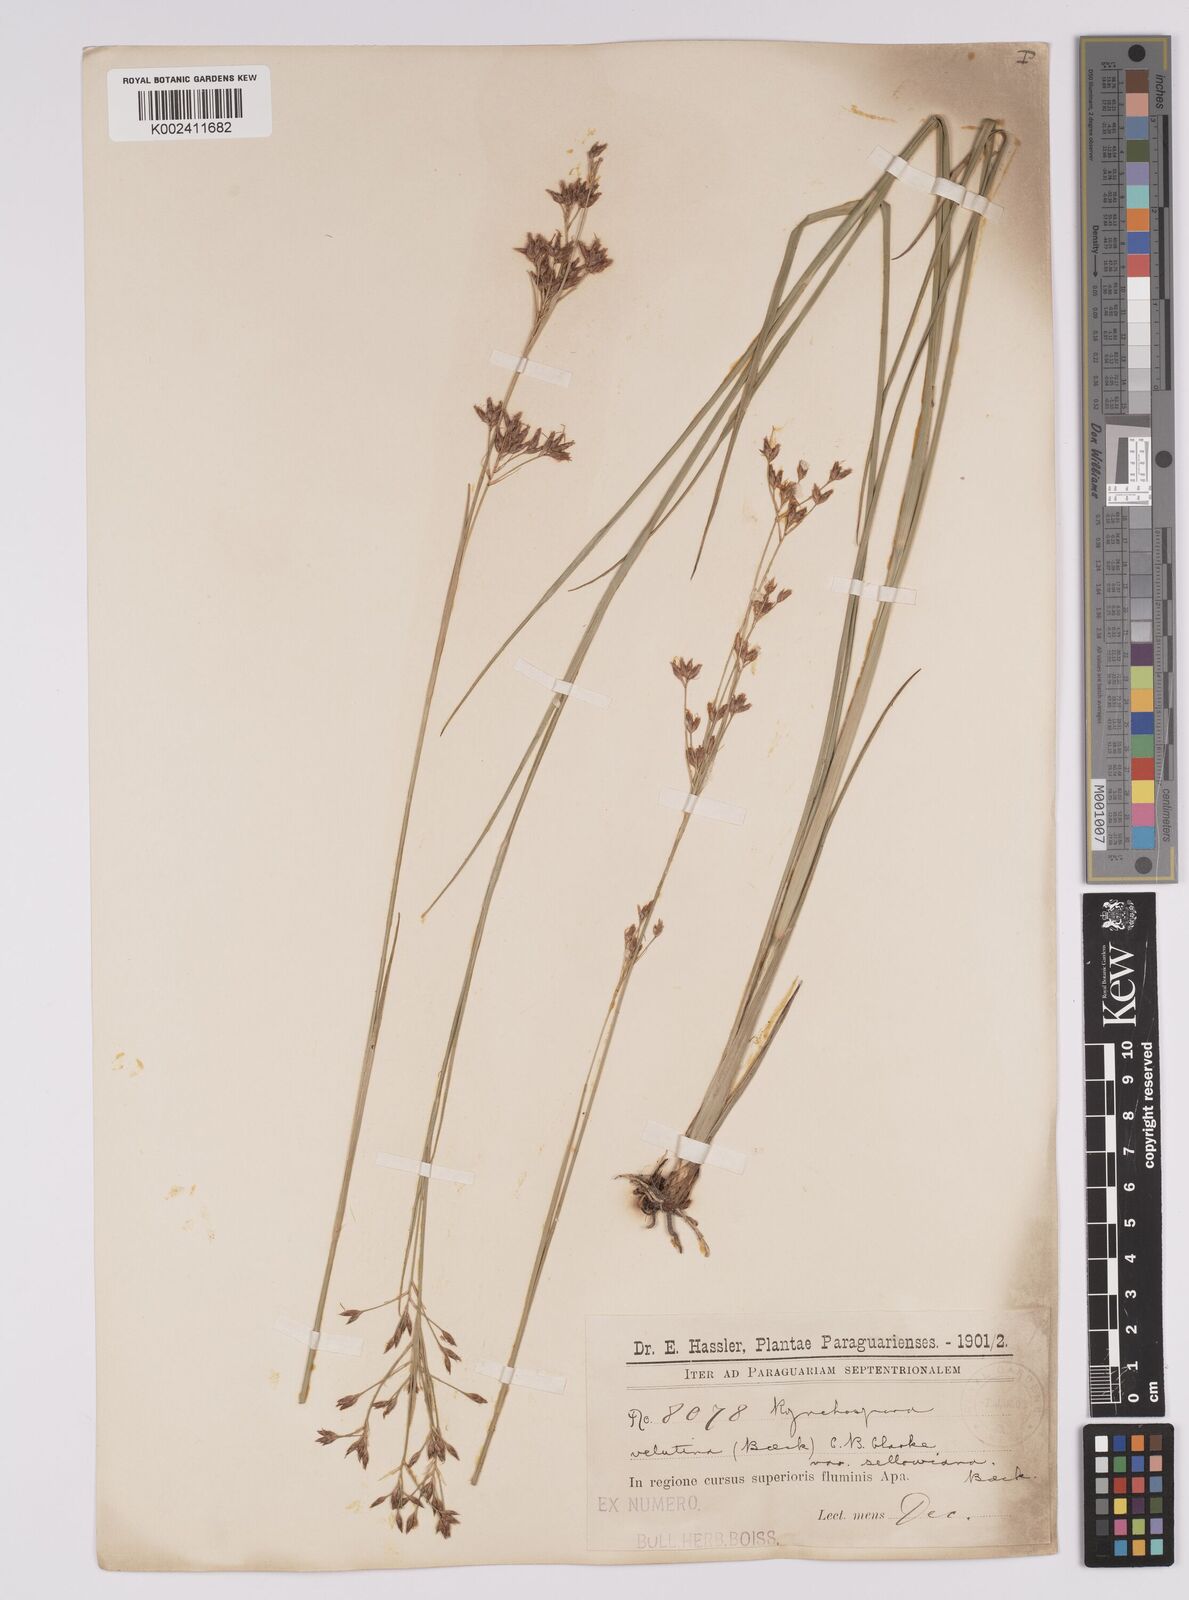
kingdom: Plantae
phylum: Tracheophyta
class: Liliopsida
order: Poales
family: Cyperaceae
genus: Rhynchospora
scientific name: Rhynchospora velutina
